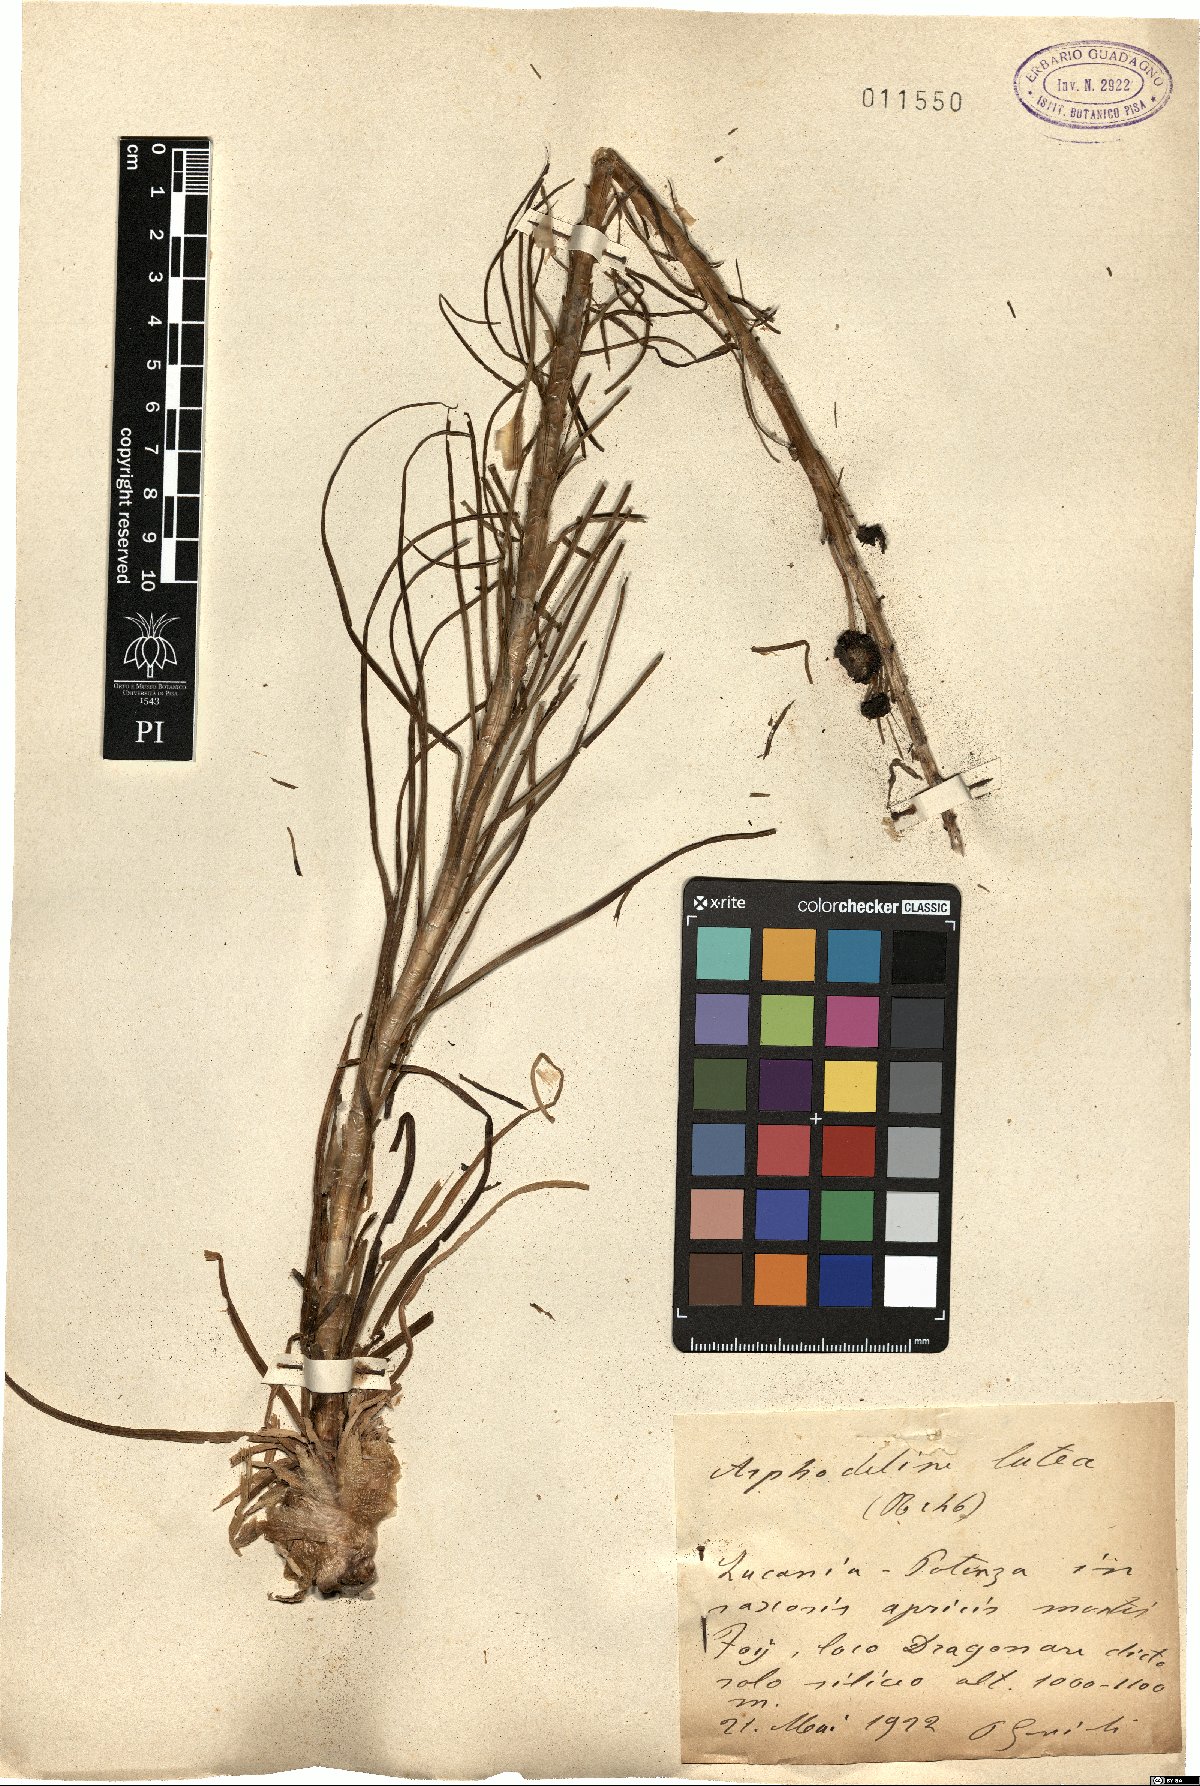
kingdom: Plantae
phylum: Tracheophyta
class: Liliopsida
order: Asparagales
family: Asphodelaceae
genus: Asphodeline
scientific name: Asphodeline lutea
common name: Yellow asphodel
